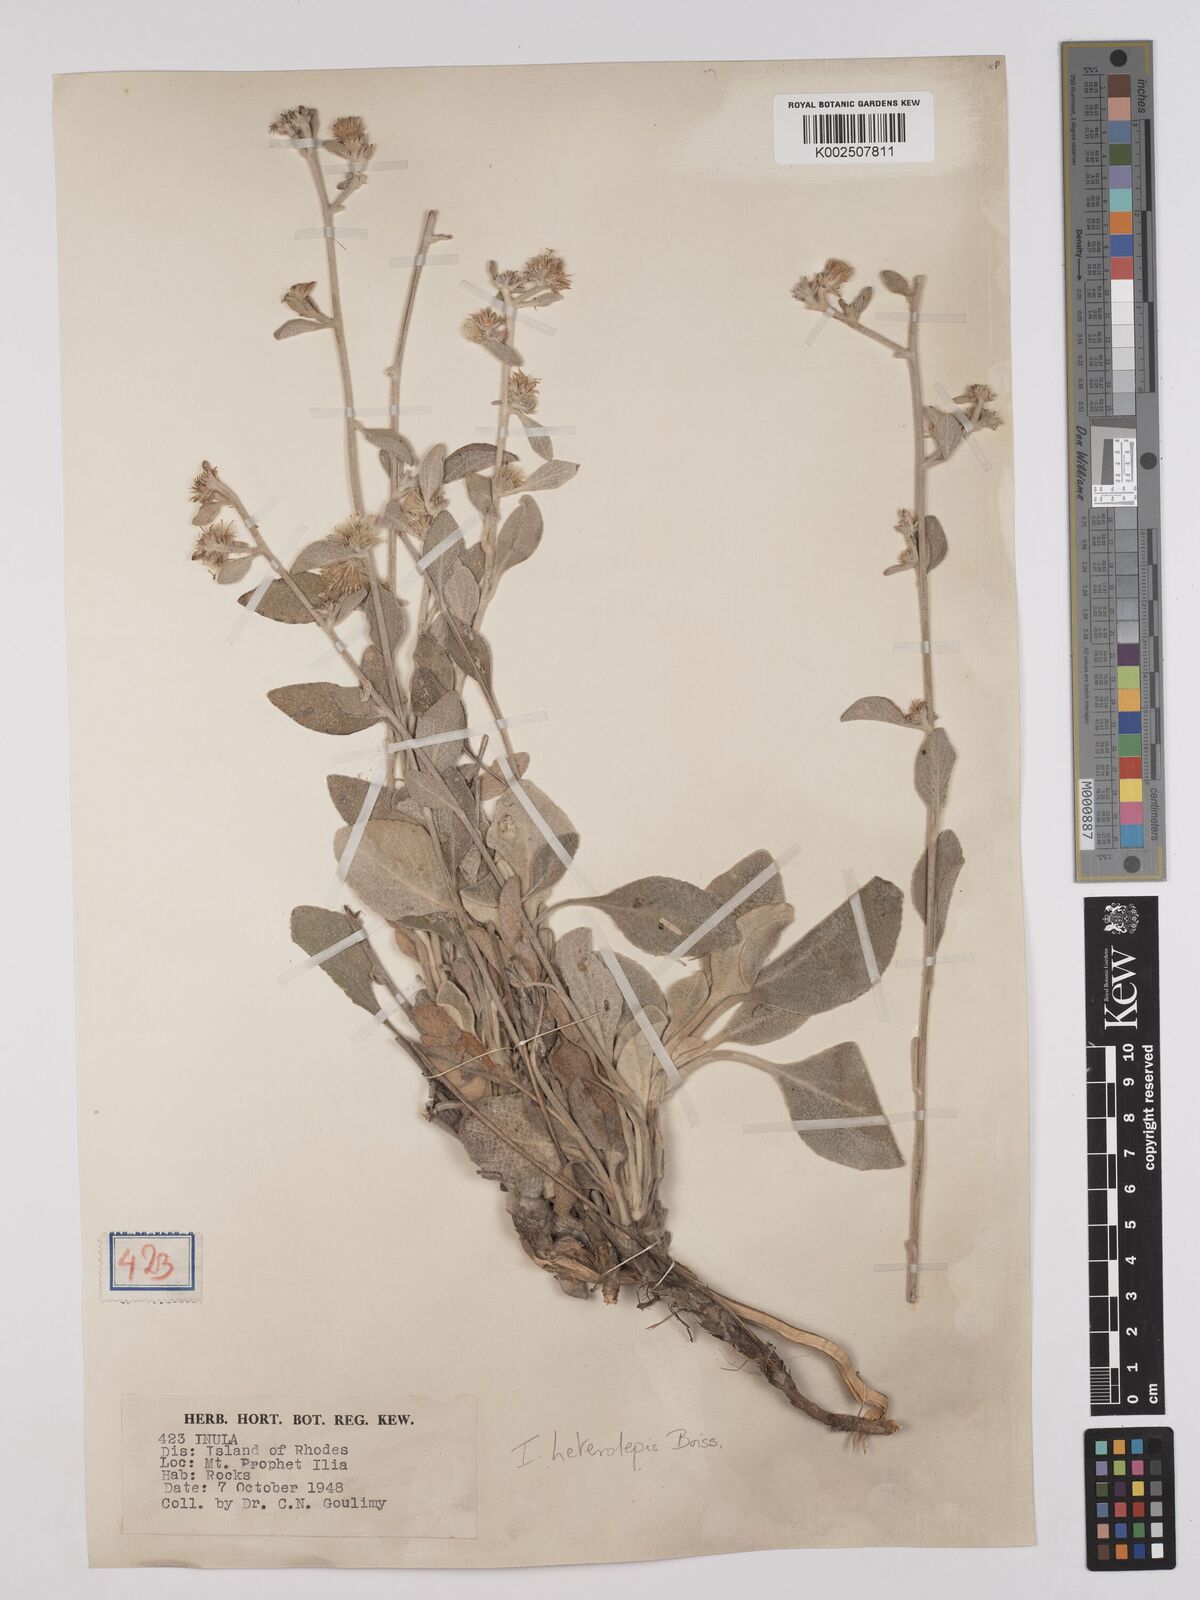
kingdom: Plantae
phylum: Tracheophyta
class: Magnoliopsida
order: Asterales
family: Asteraceae
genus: Pentanema
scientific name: Pentanema verbascifolium
